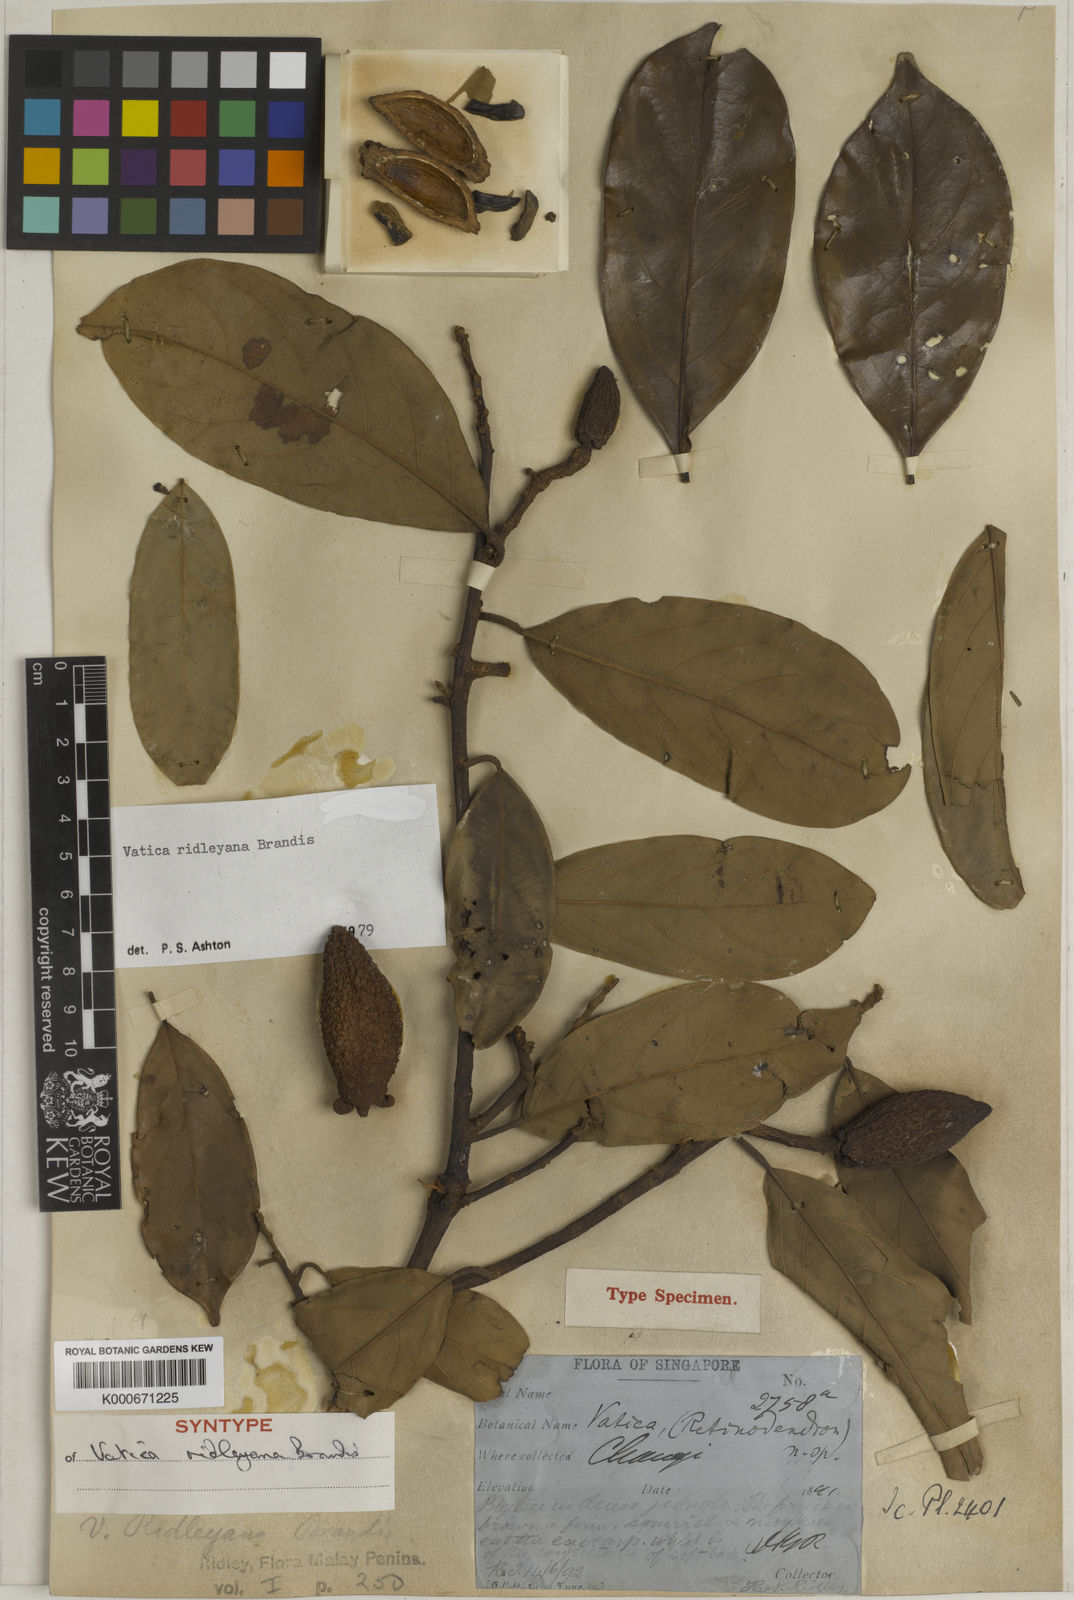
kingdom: Plantae
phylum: Tracheophyta
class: Magnoliopsida
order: Malvales
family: Dipterocarpaceae
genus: Vatica
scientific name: Vatica ridleyana
